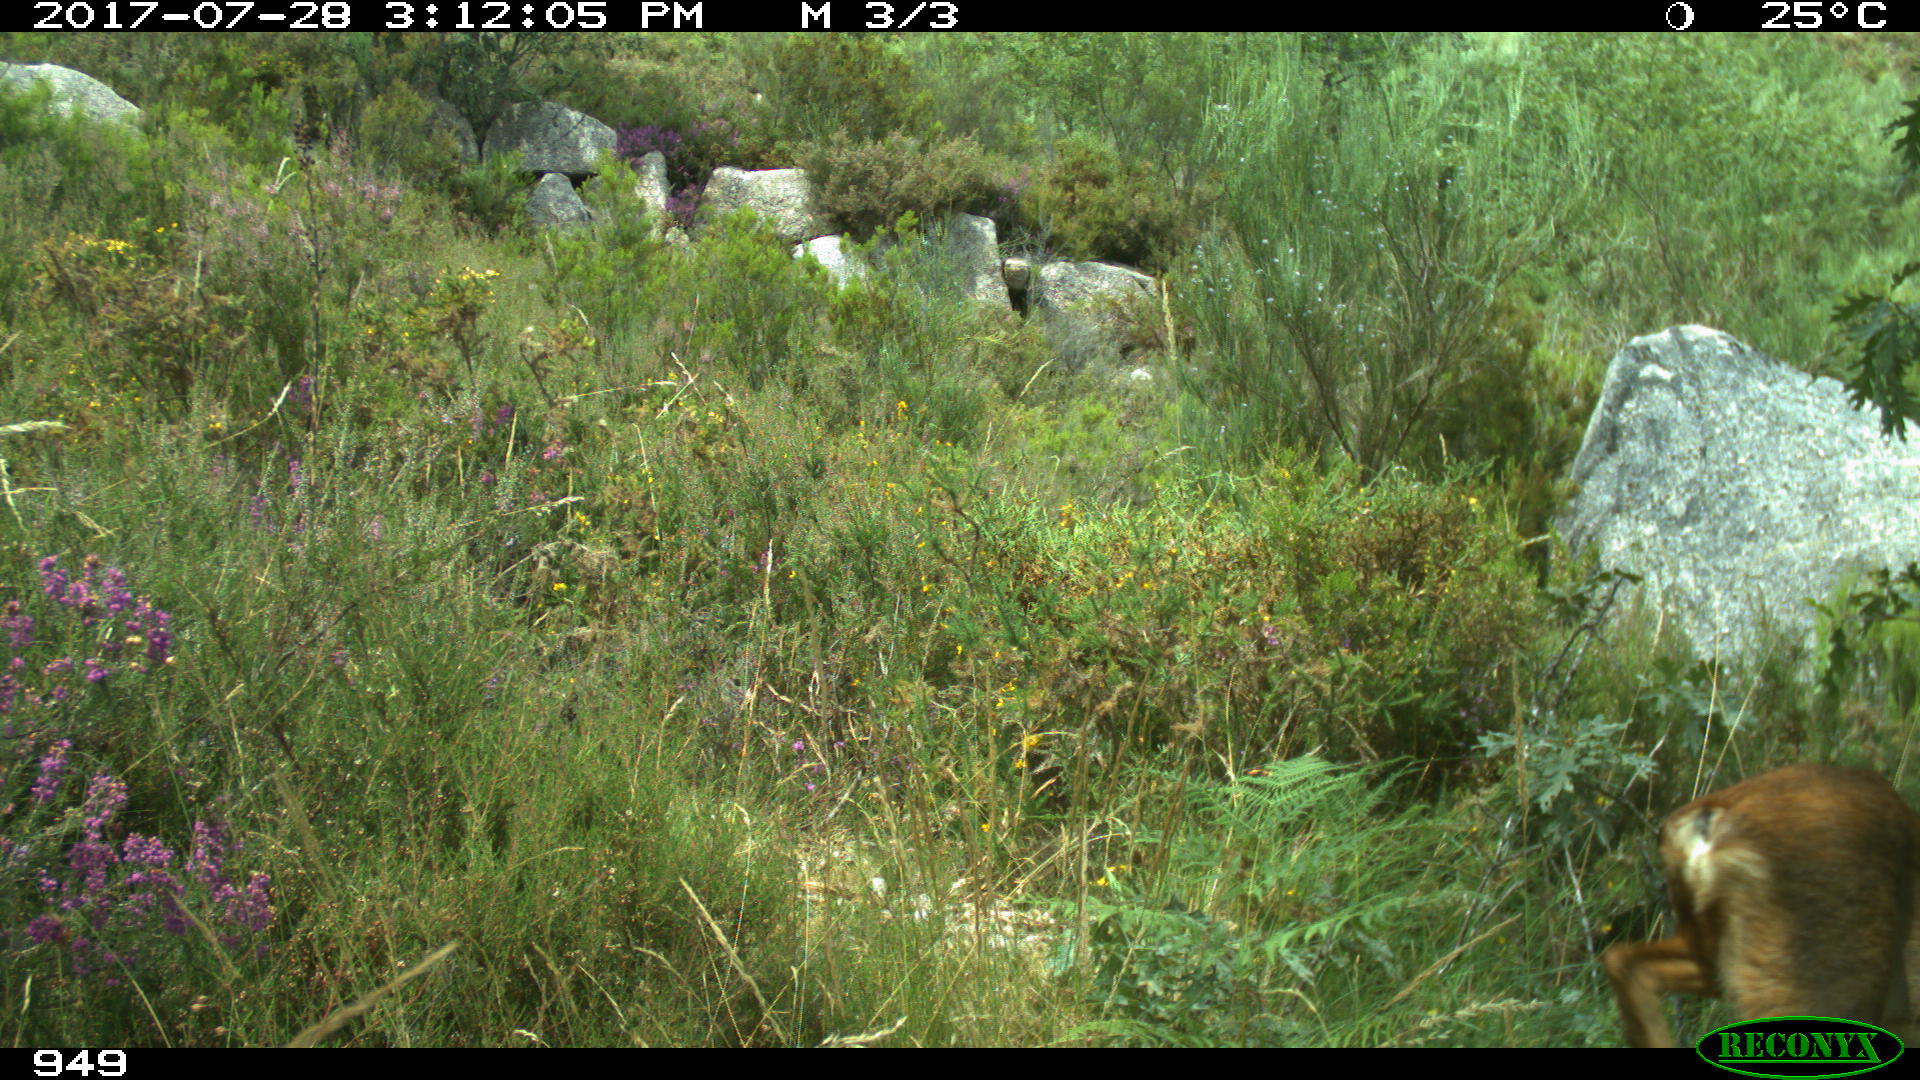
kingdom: Animalia
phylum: Chordata
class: Mammalia
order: Artiodactyla
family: Cervidae
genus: Capreolus
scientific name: Capreolus capreolus
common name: Western roe deer
